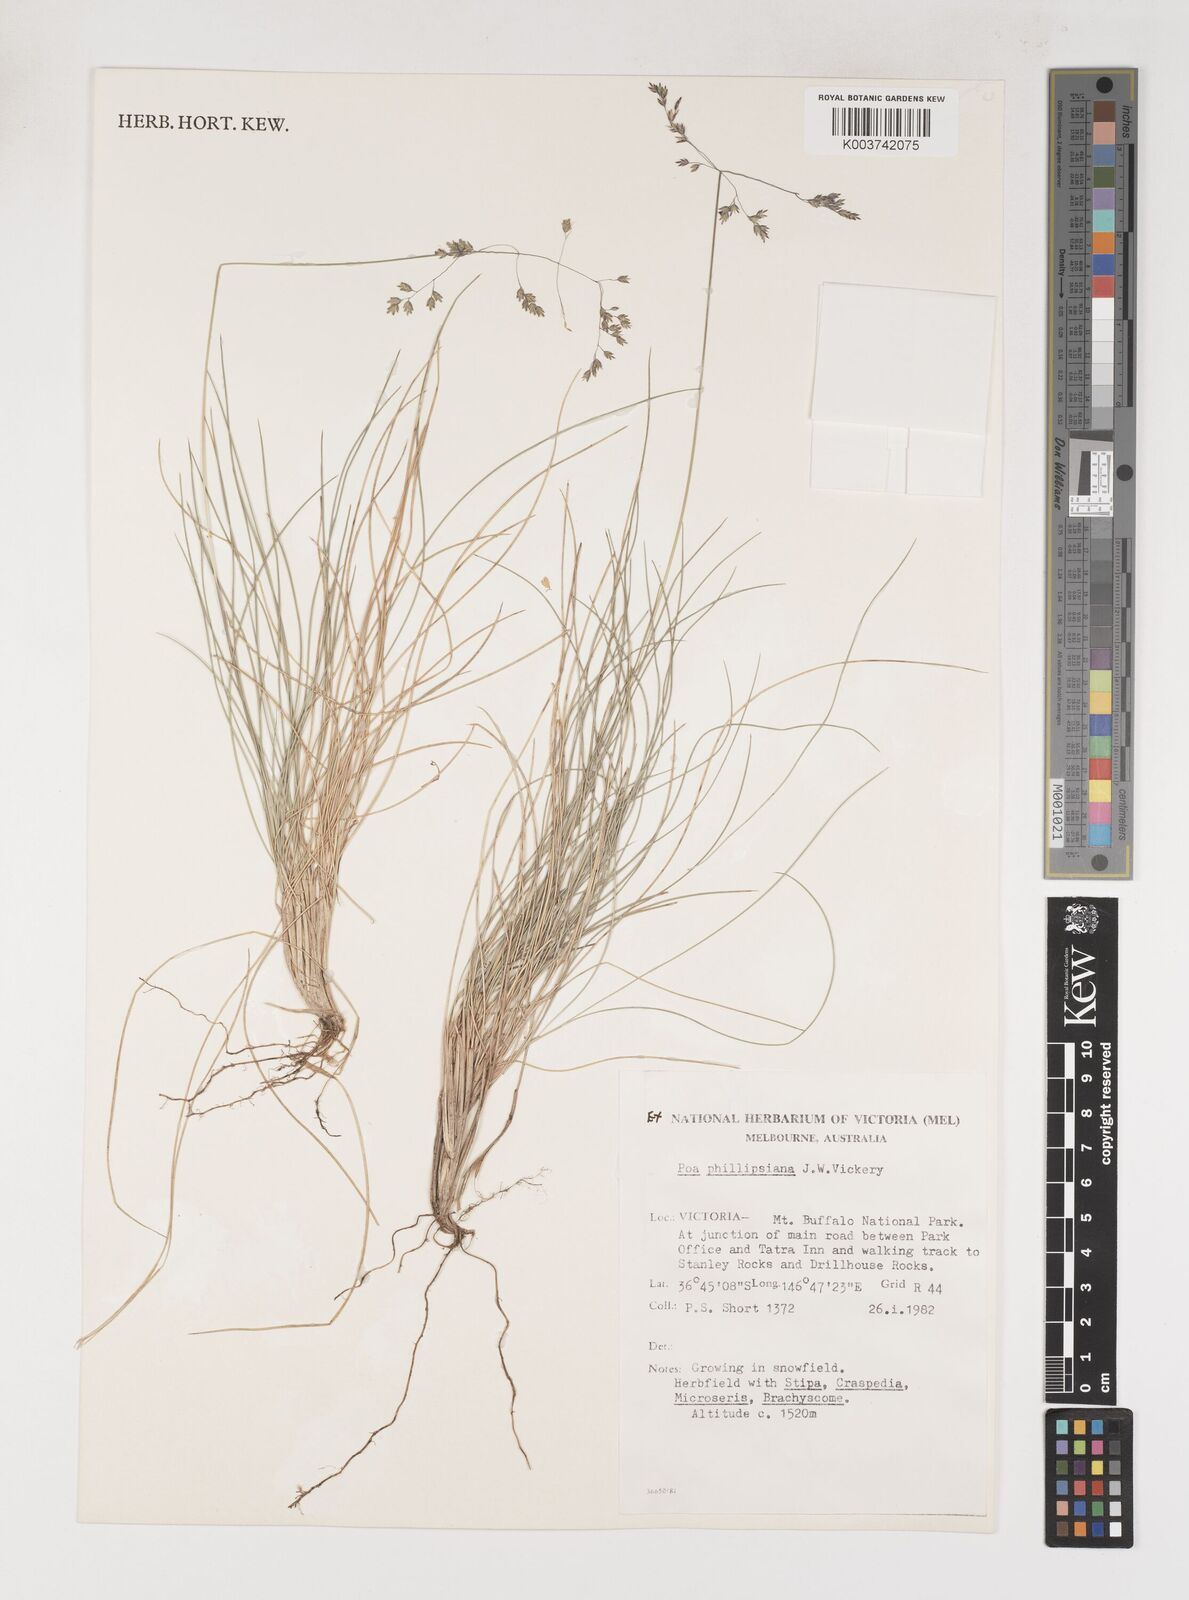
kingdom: Plantae
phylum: Tracheophyta
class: Liliopsida
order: Poales
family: Poaceae
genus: Poa
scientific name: Poa phillipsiana
